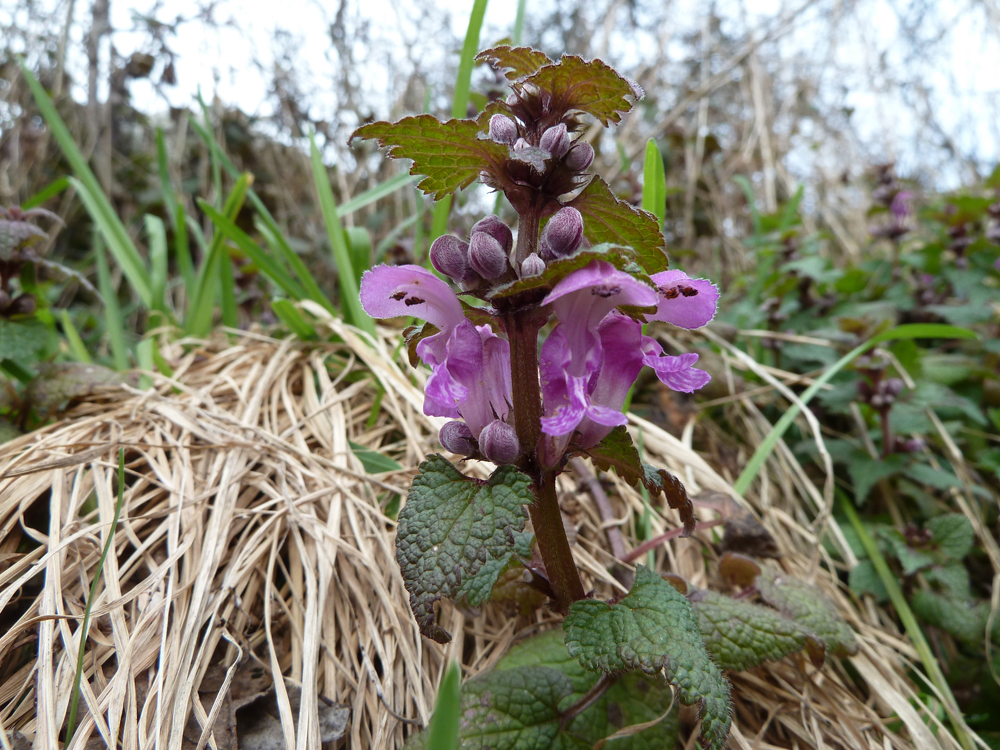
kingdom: Plantae
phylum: Tracheophyta
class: Magnoliopsida
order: Lamiales
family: Lamiaceae
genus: Lamium
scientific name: Lamium maculatum
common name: Spotted dead-nettle
